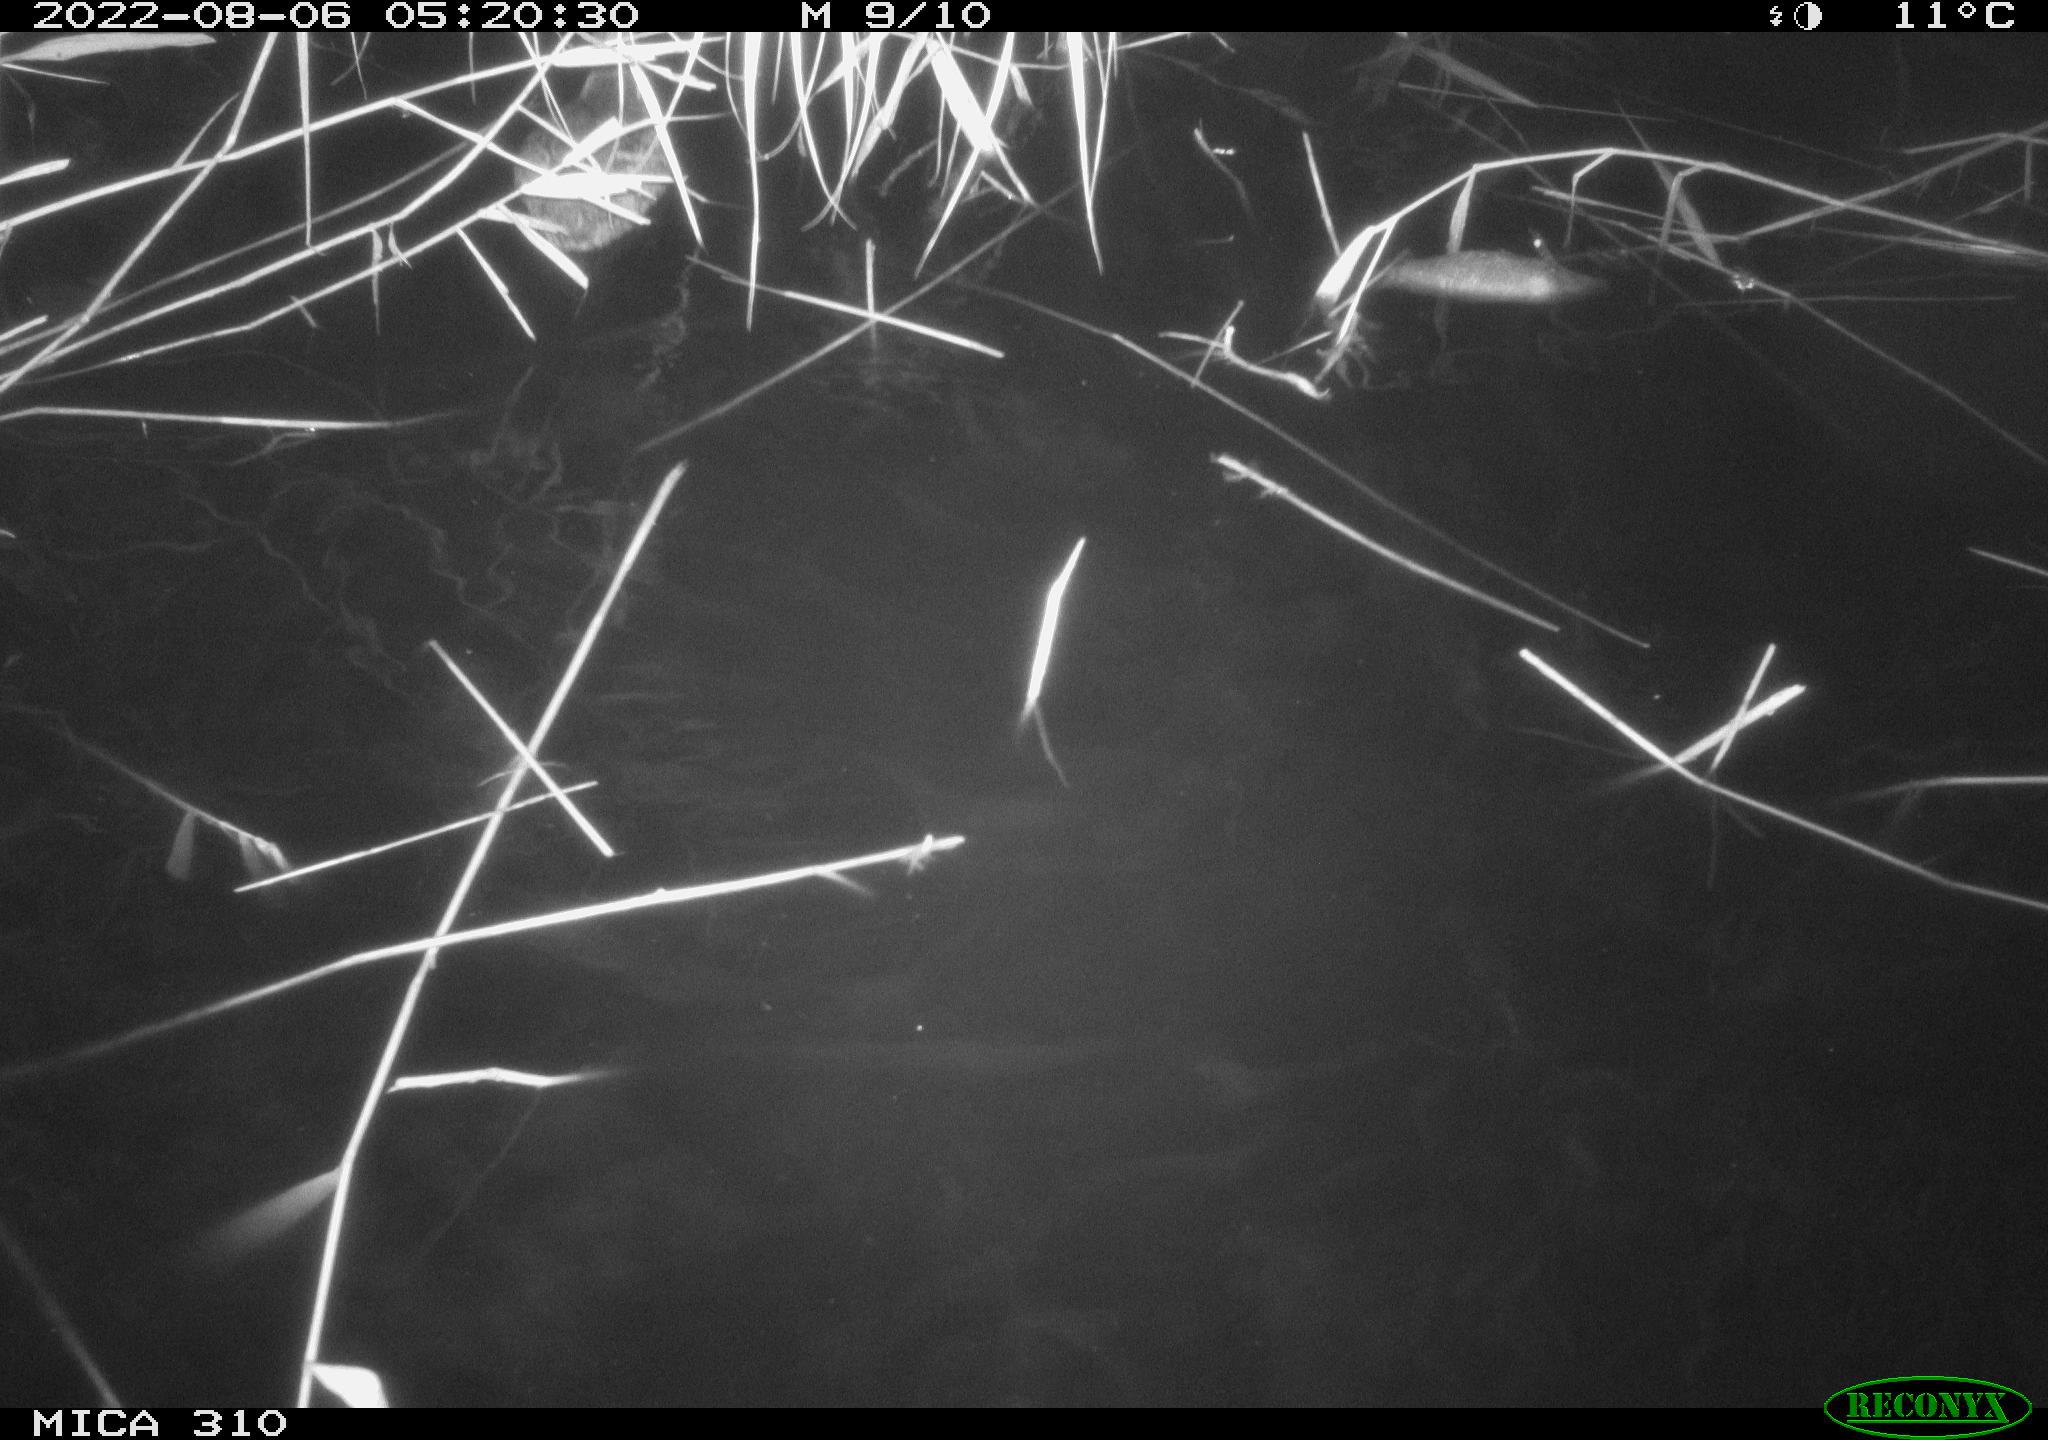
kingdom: Animalia
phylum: Chordata
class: Aves
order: Anseriformes
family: Anatidae
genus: Anas
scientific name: Anas platyrhynchos
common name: Mallard
